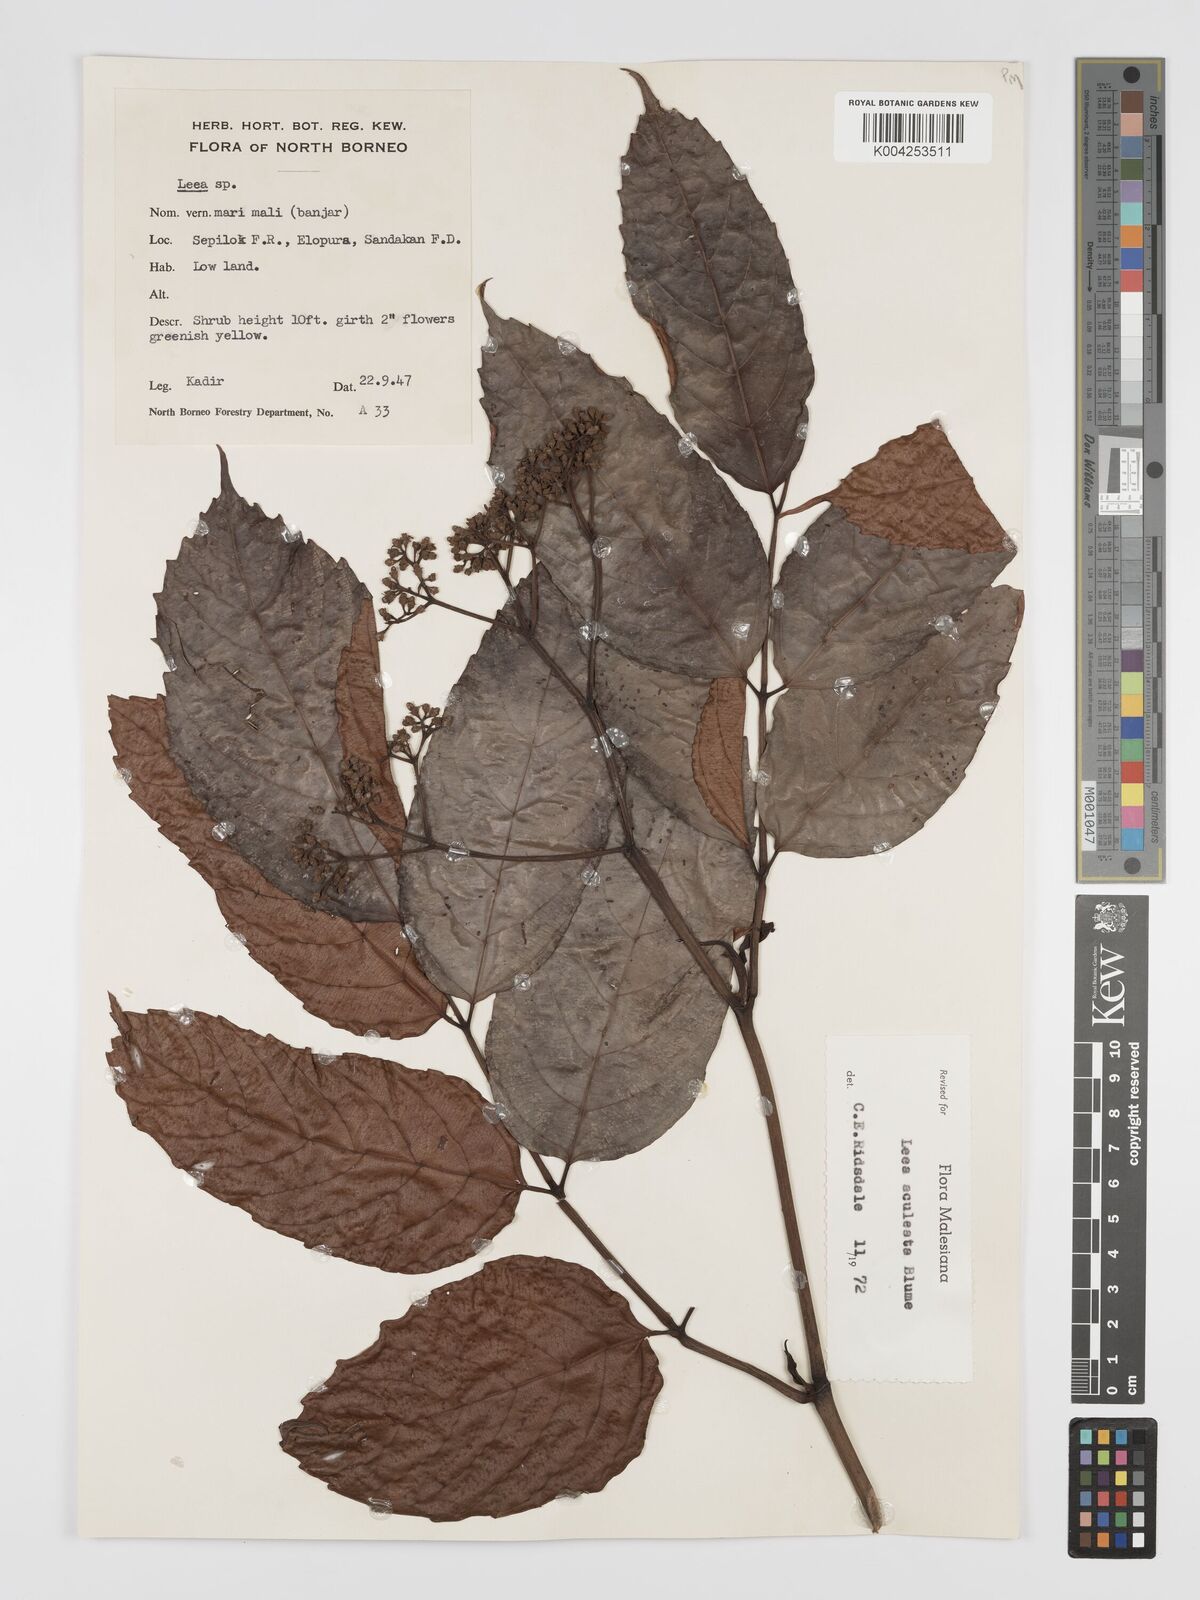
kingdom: Plantae
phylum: Tracheophyta
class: Magnoliopsida
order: Vitales
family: Vitaceae
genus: Leea
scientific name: Leea aculeata
